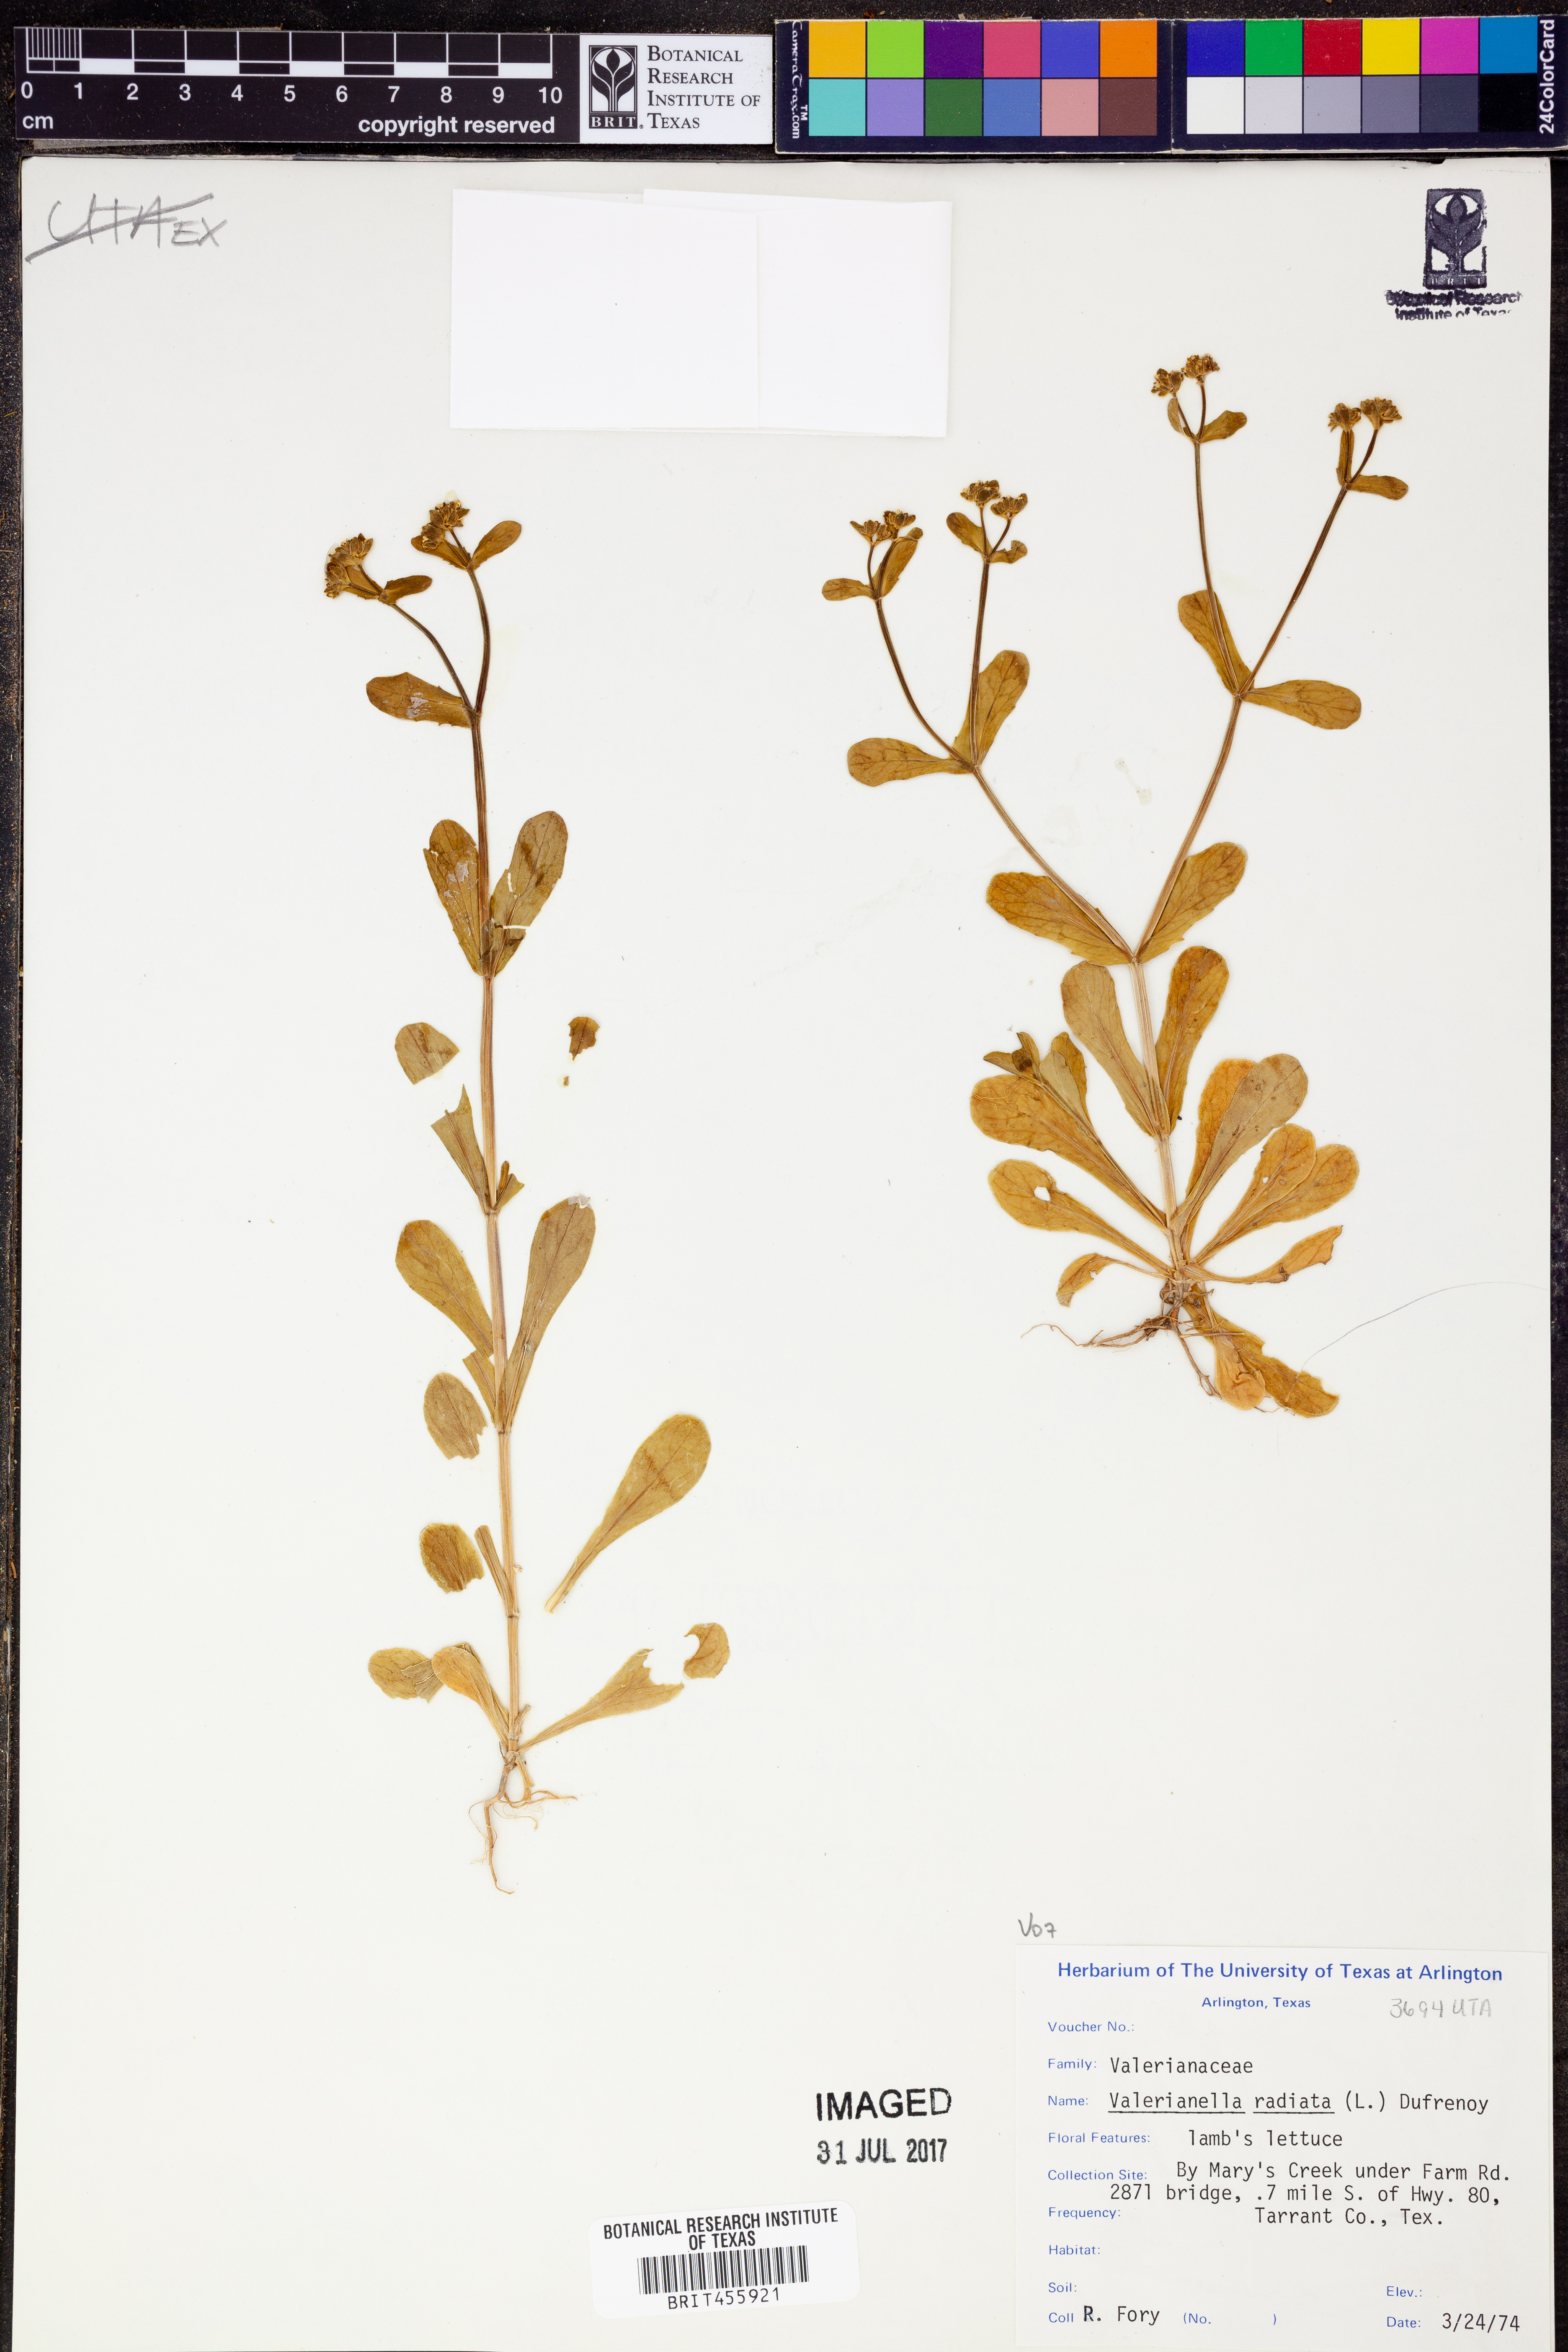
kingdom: Plantae
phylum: Tracheophyta
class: Magnoliopsida
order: Dipsacales
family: Caprifoliaceae
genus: Valerianella
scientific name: Valerianella radiata
